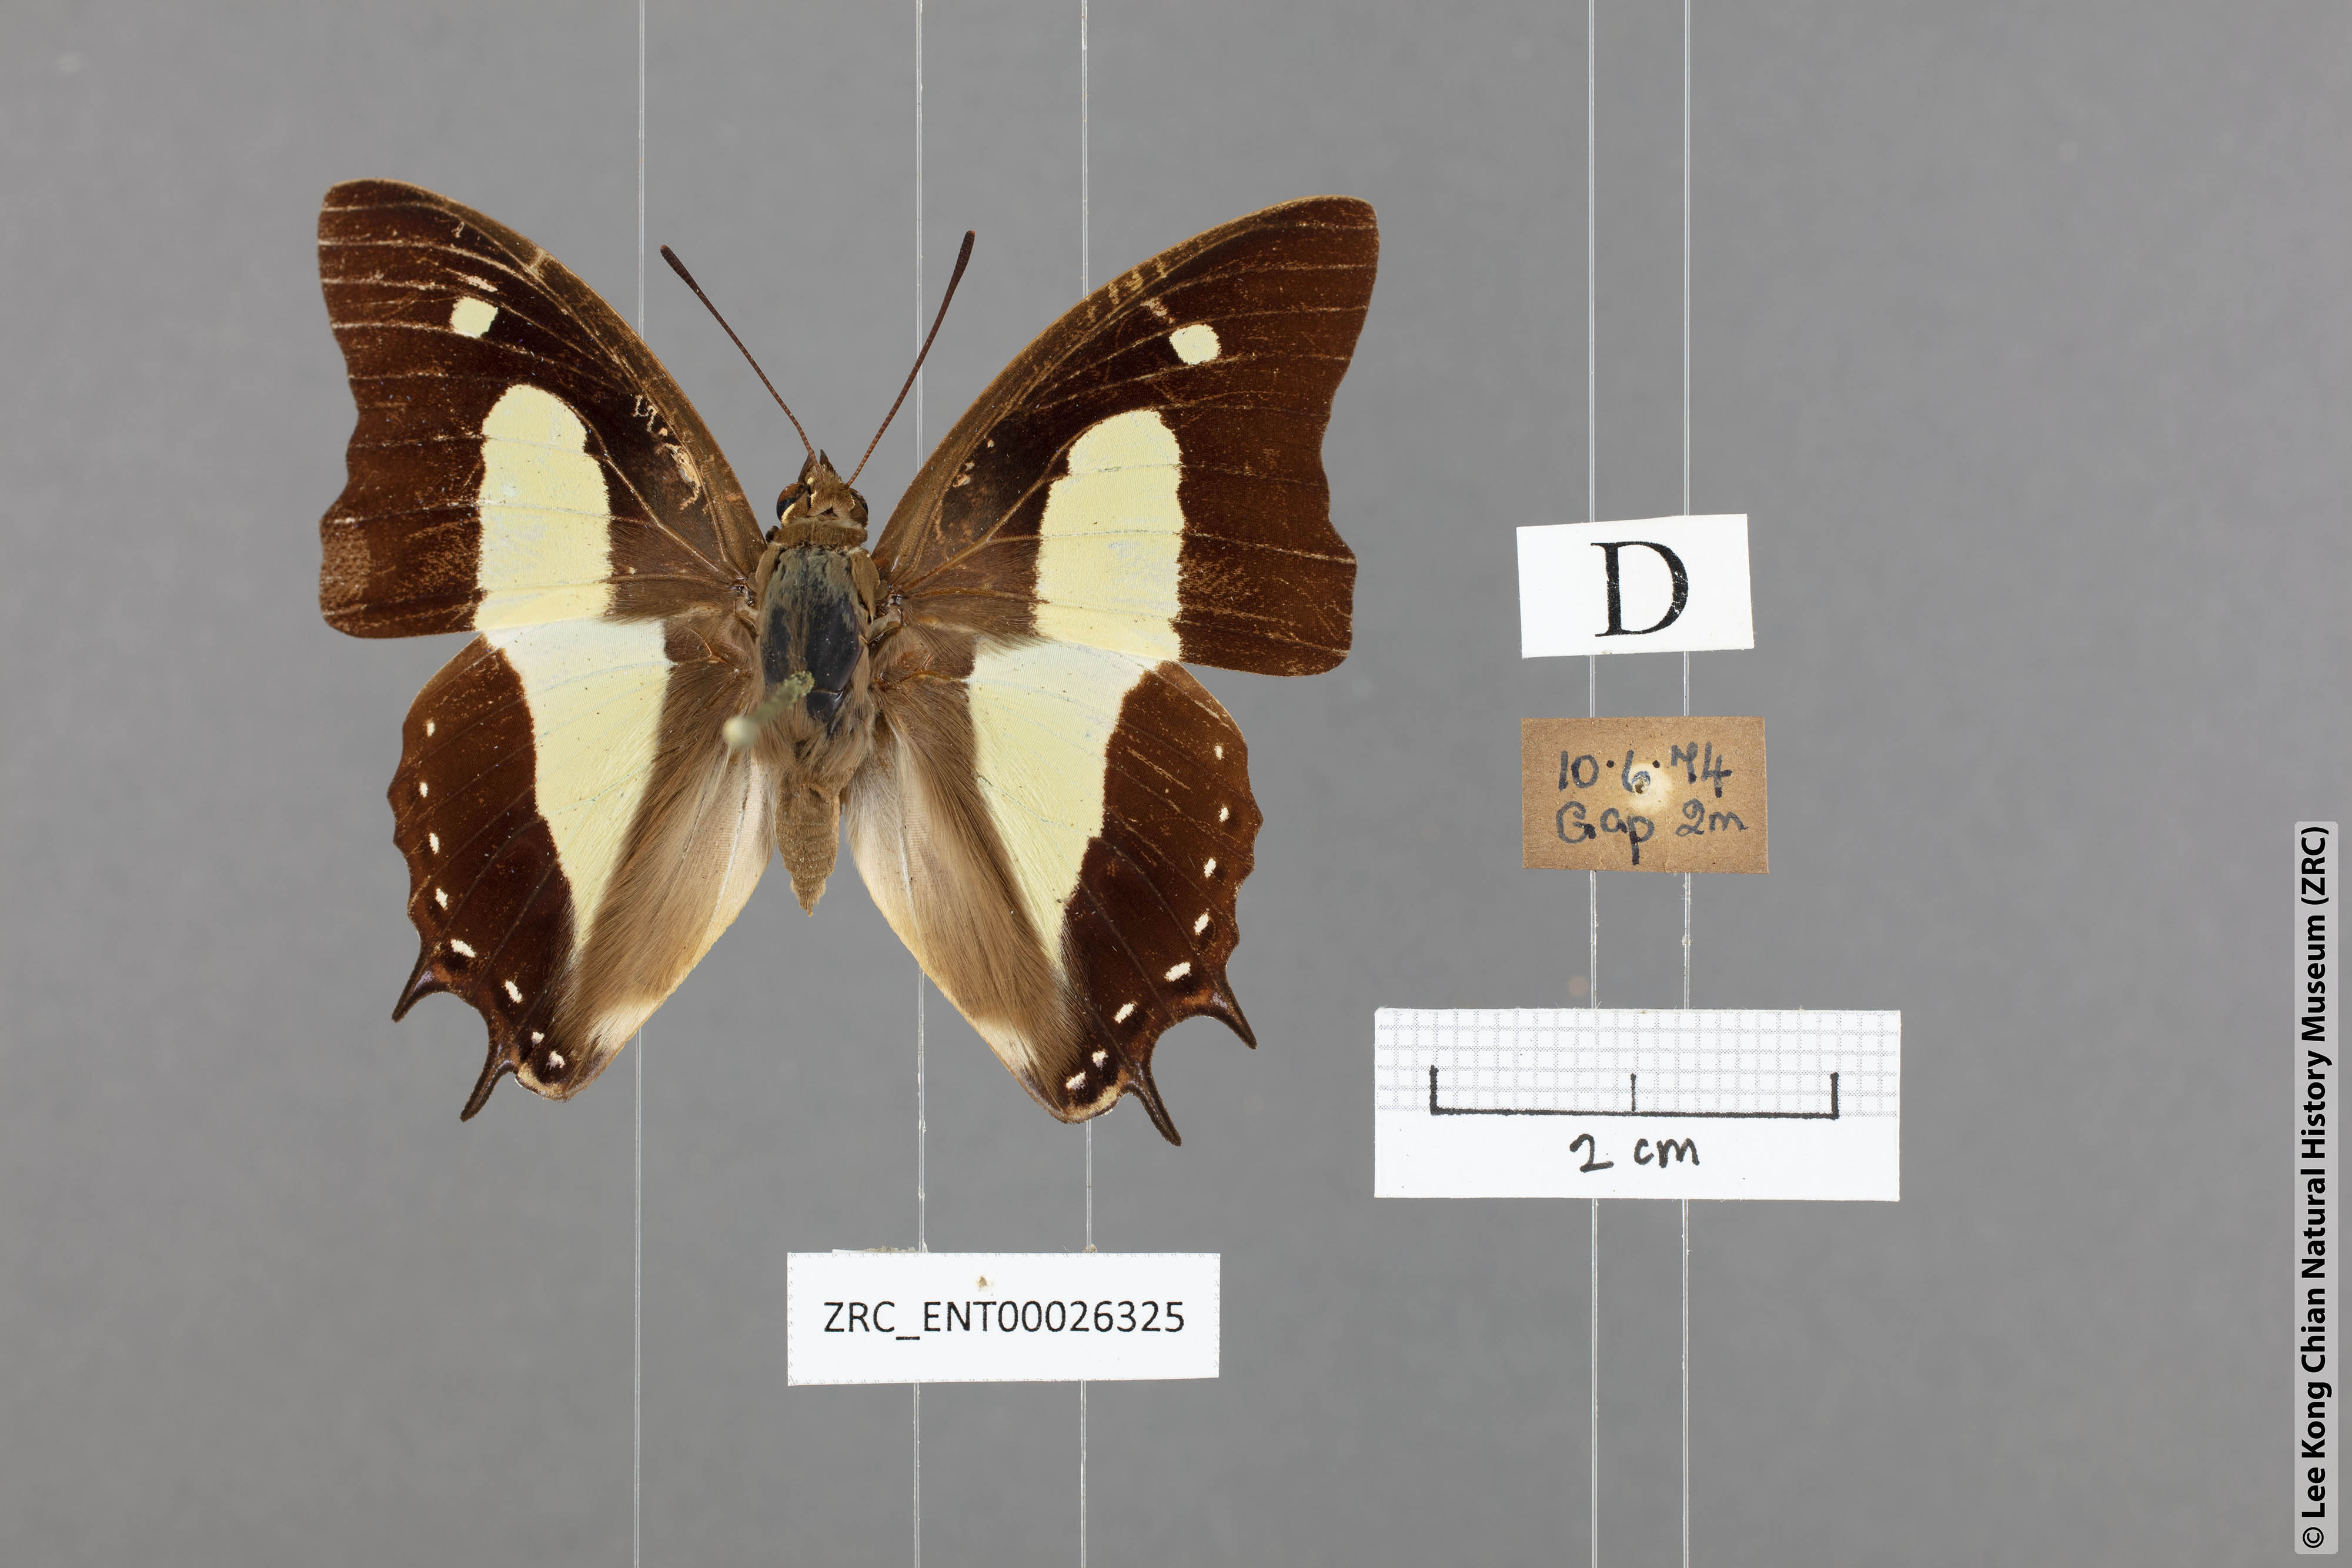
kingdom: Animalia
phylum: Arthropoda
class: Insecta
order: Lepidoptera
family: Nymphalidae
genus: Polyura
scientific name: Polyura athamas
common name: Common nawab
